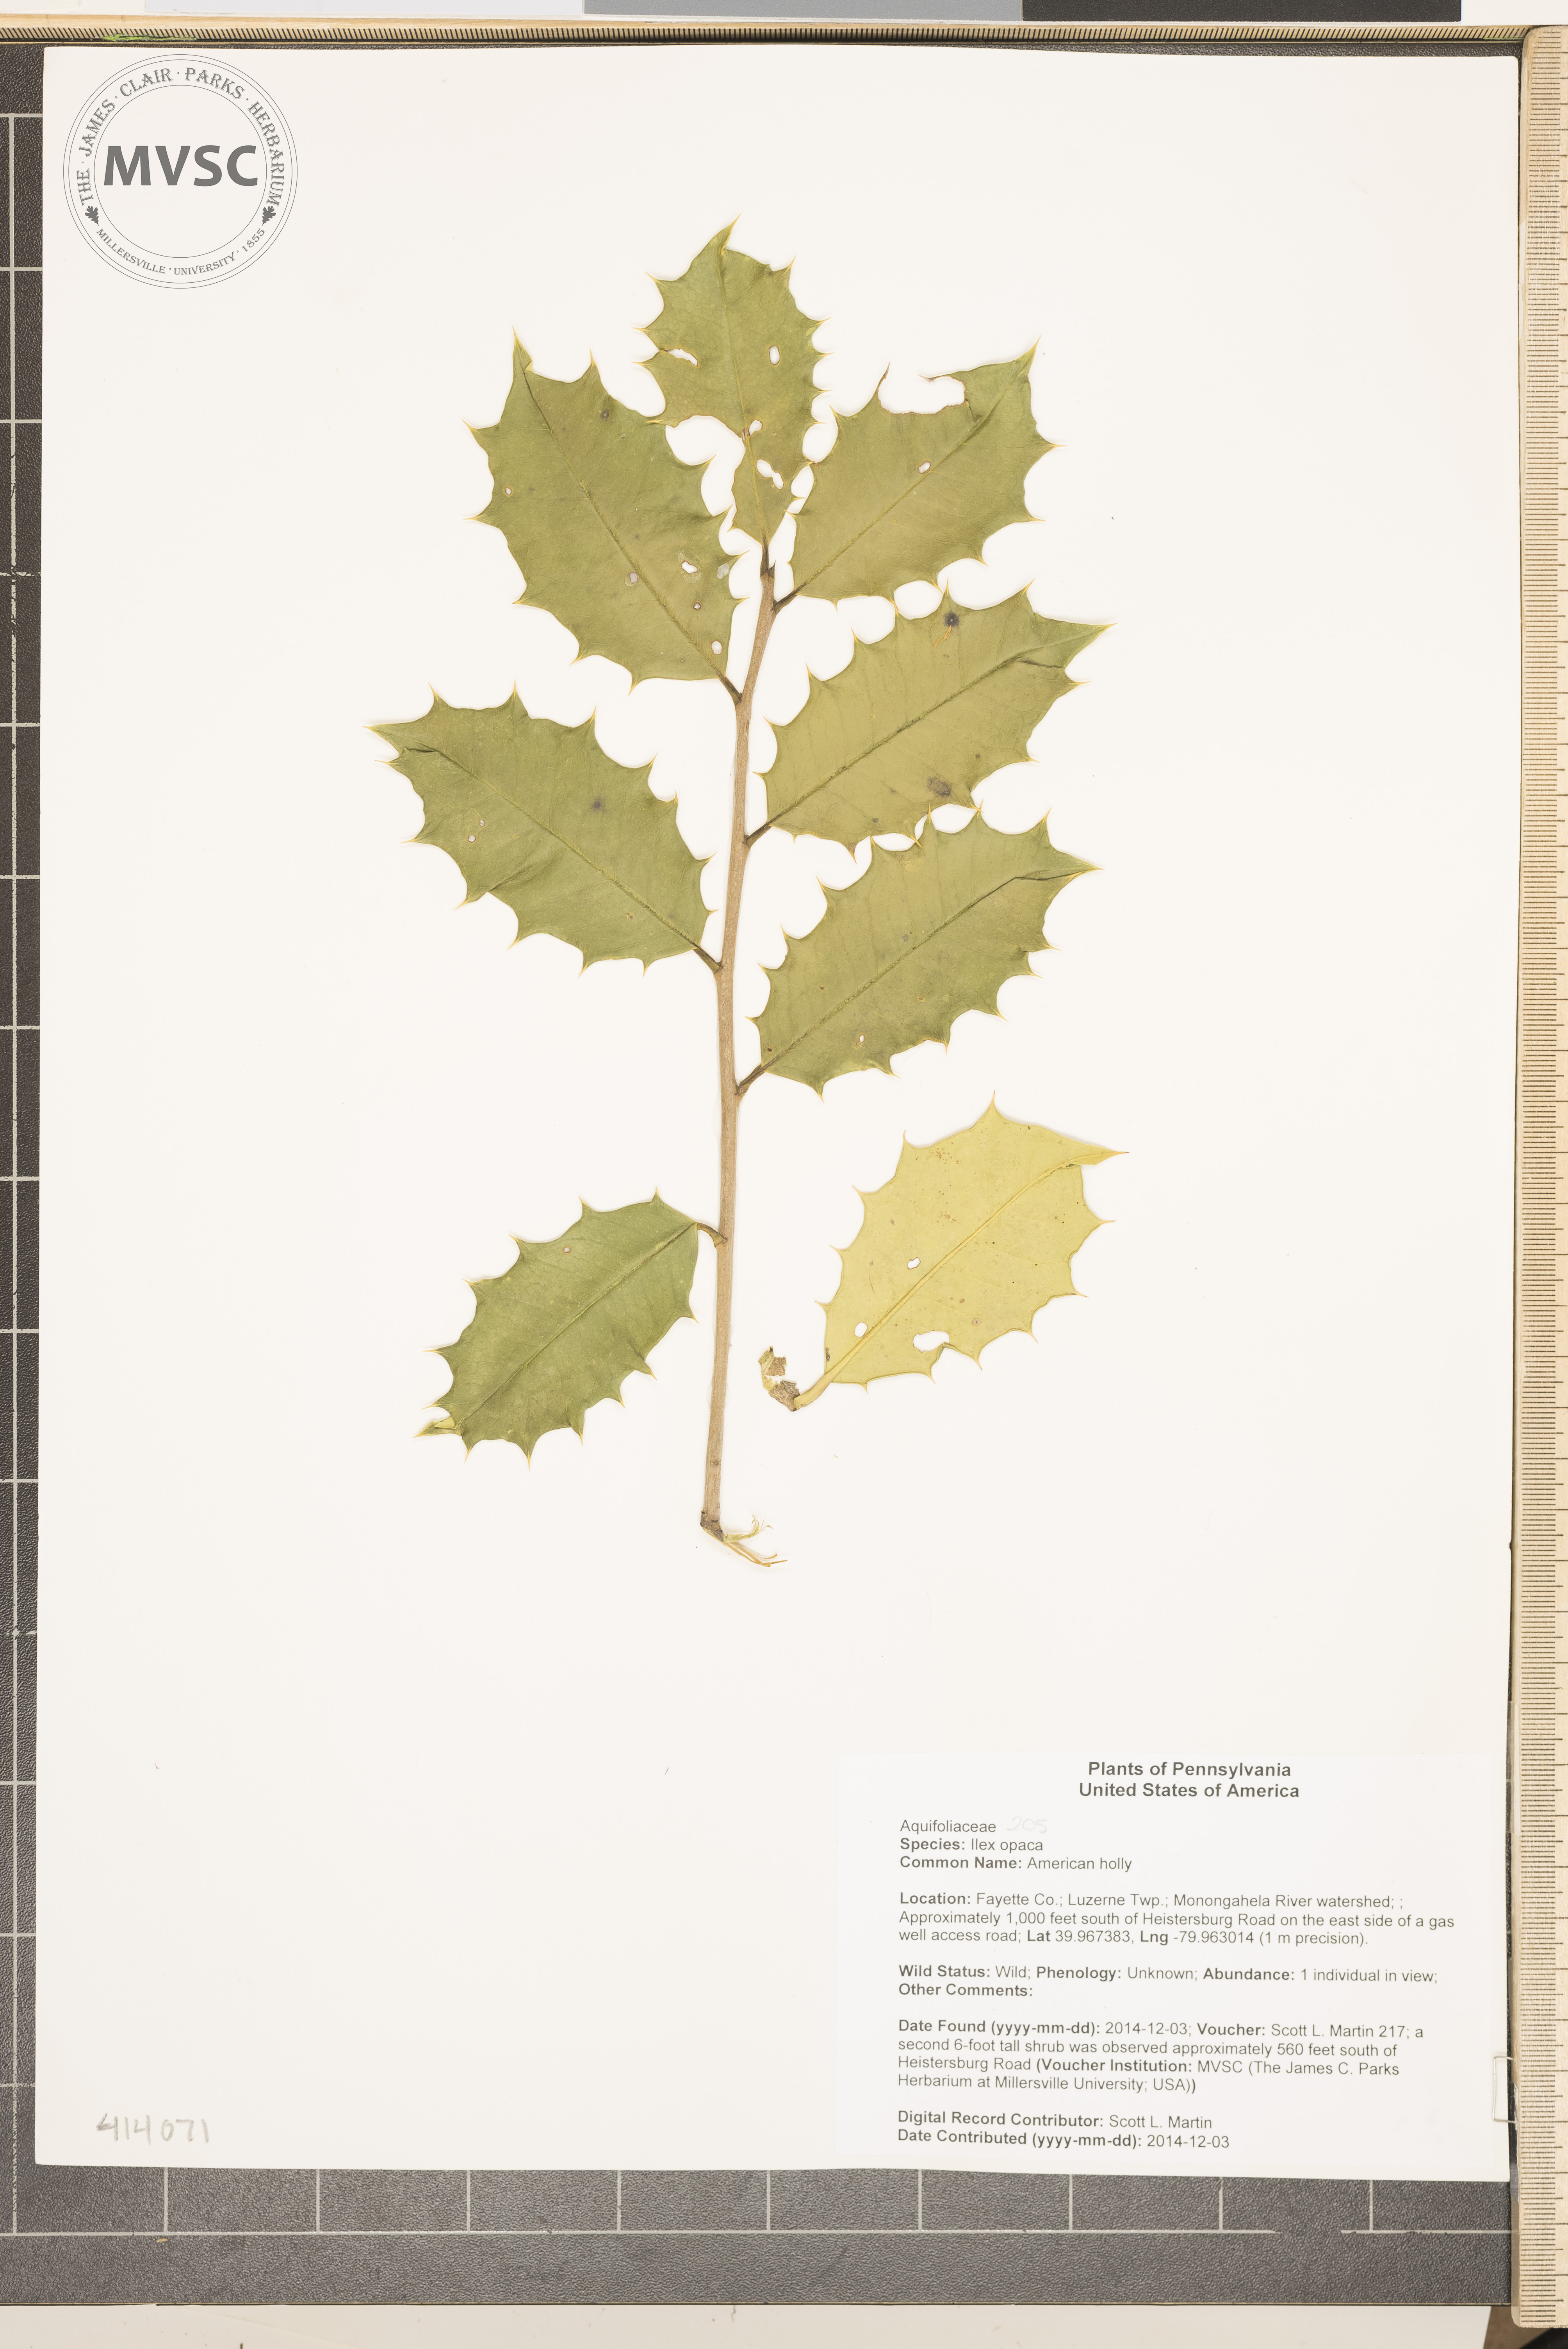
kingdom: Plantae
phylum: Tracheophyta
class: Magnoliopsida
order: Aquifoliales
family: Aquifoliaceae
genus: Ilex
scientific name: Ilex opaca
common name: American holly
